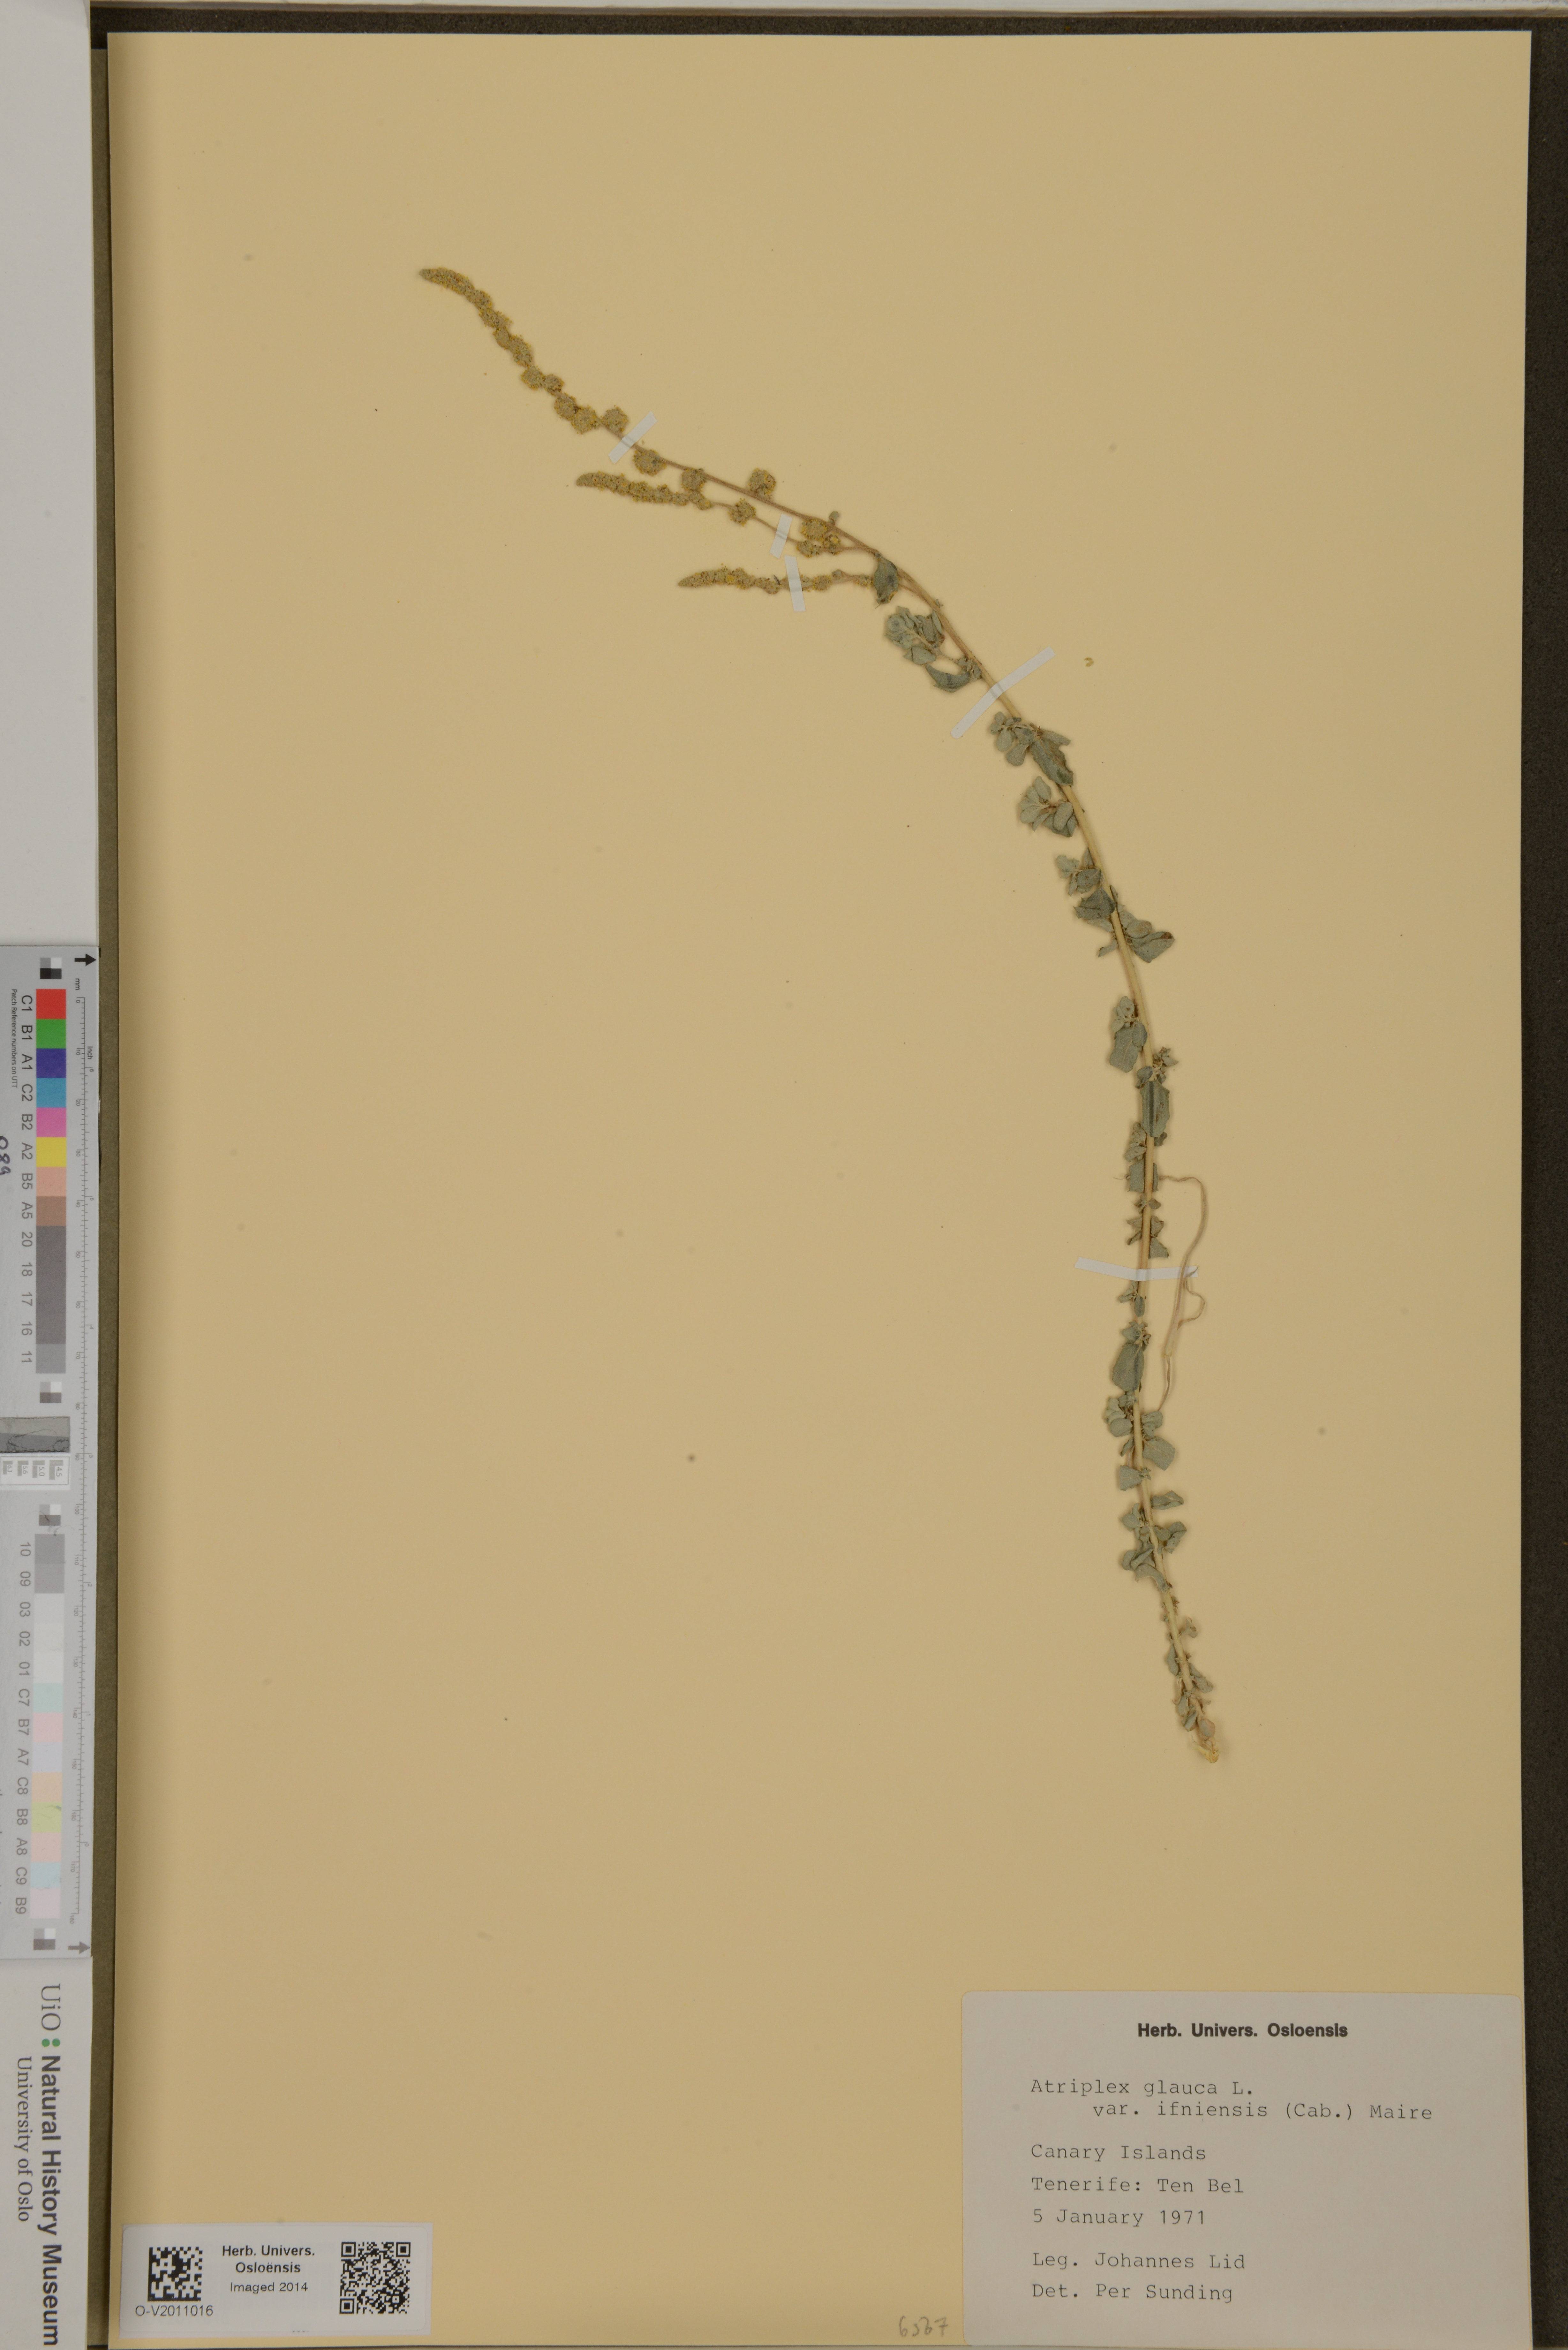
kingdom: Plantae
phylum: Tracheophyta
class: Magnoliopsida
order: Caryophyllales
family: Amaranthaceae
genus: Atriplex
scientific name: Atriplex glauca
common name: Waxy saltbush
